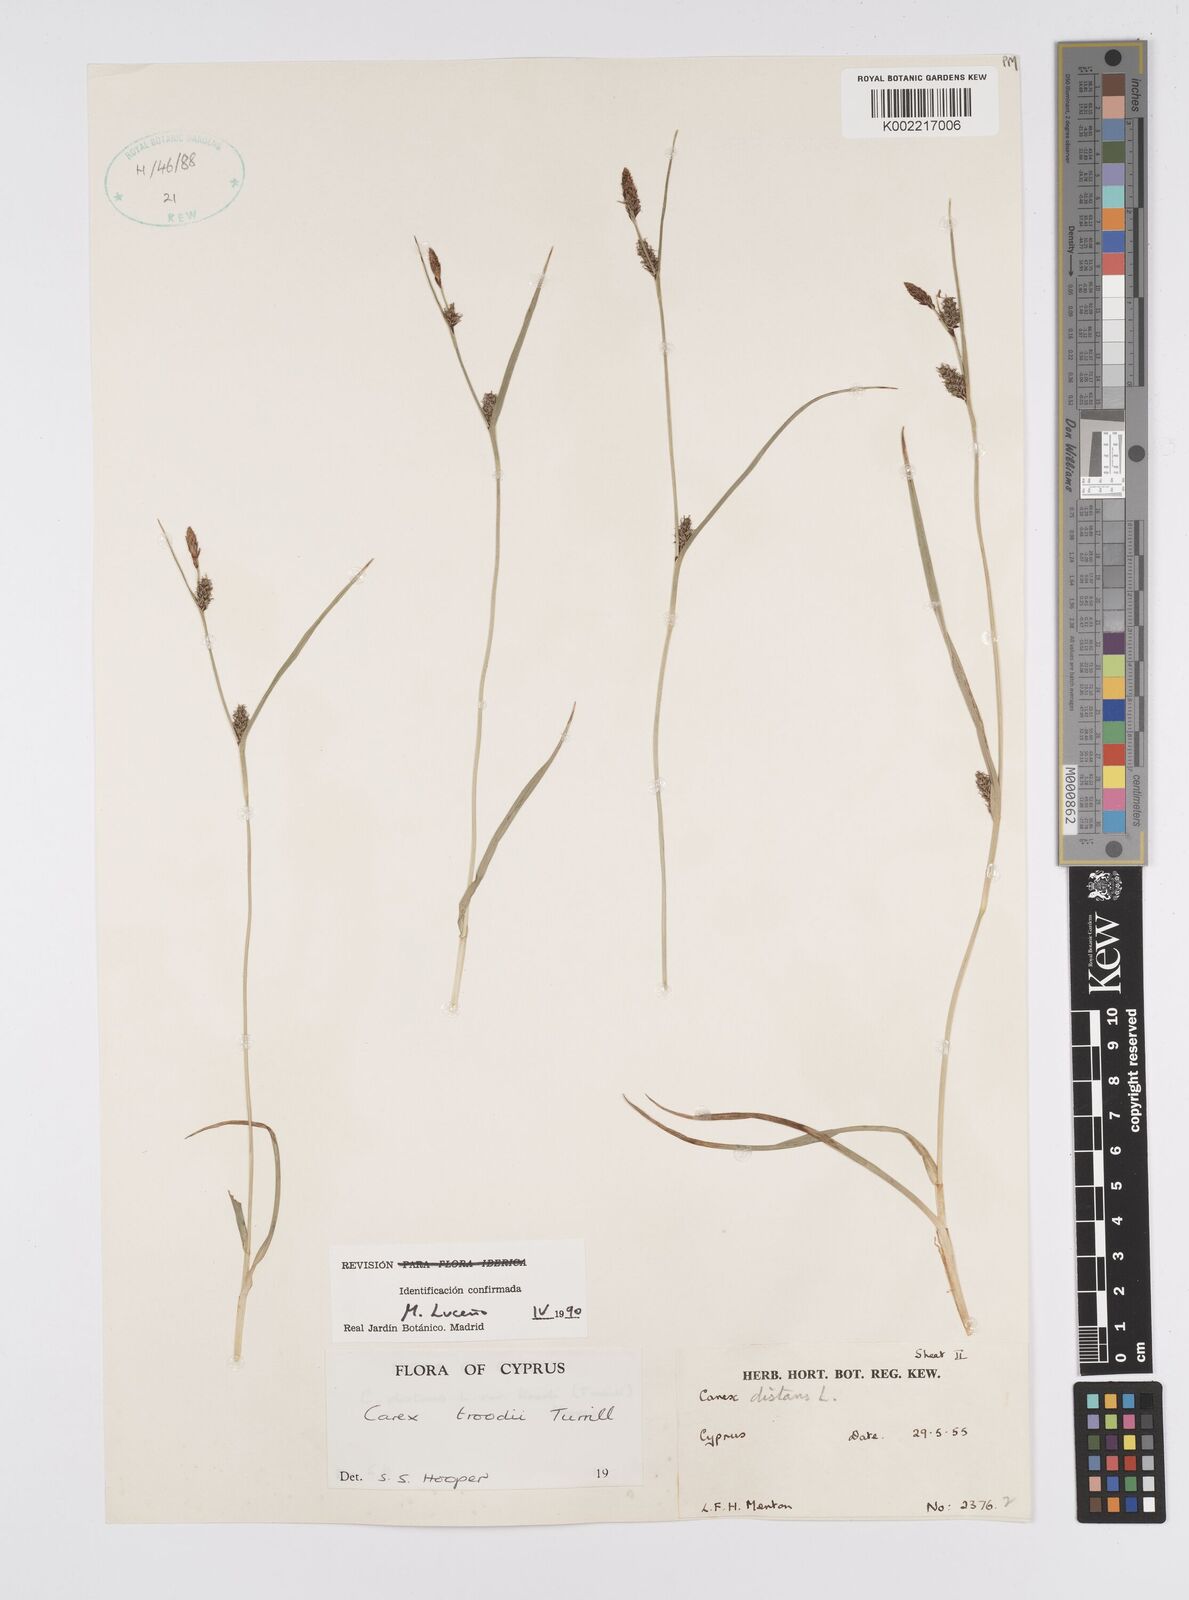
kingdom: Plantae
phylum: Tracheophyta
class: Liliopsida
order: Poales
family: Cyperaceae
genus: Carex
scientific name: Carex troodi
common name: Troodos mount sedge
